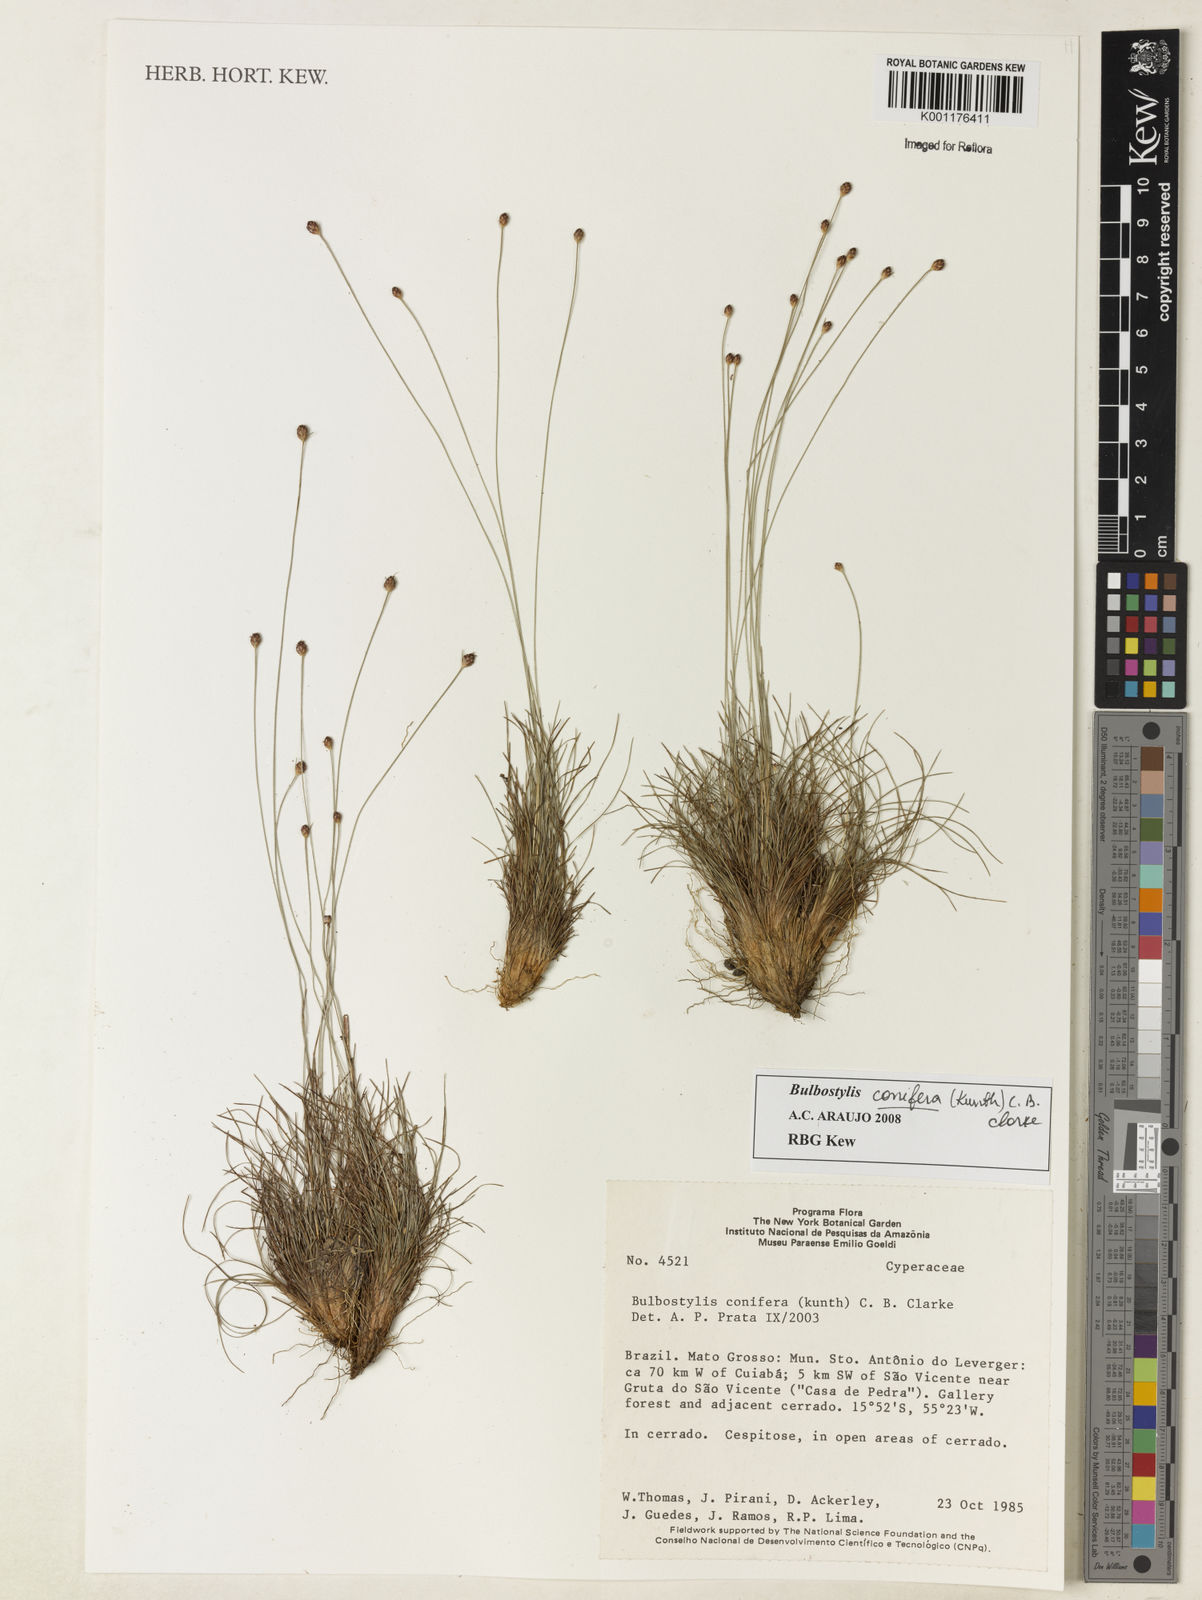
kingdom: Plantae
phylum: Tracheophyta
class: Liliopsida
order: Poales
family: Cyperaceae
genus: Bulbostylis
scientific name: Bulbostylis conifera
